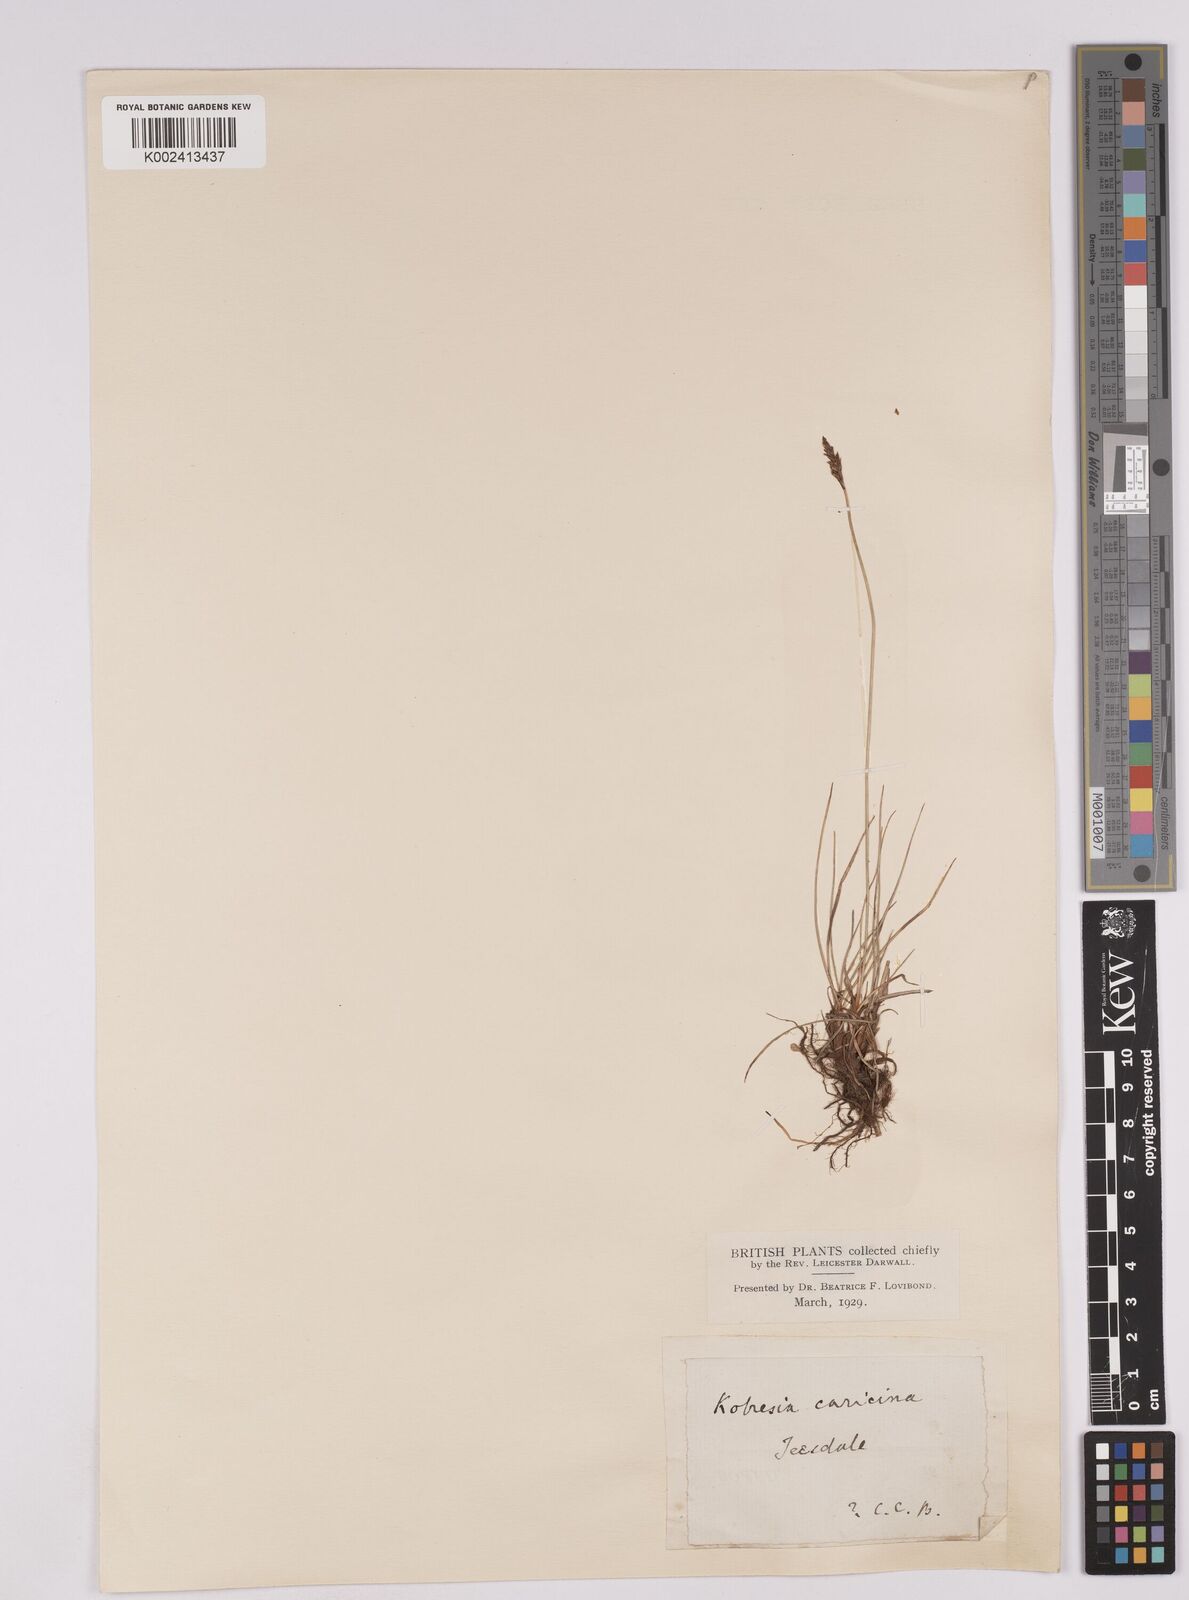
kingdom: Plantae
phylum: Tracheophyta
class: Liliopsida
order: Poales
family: Cyperaceae
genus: Carex
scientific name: Carex simpliciuscula
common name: Simple bog sedge
